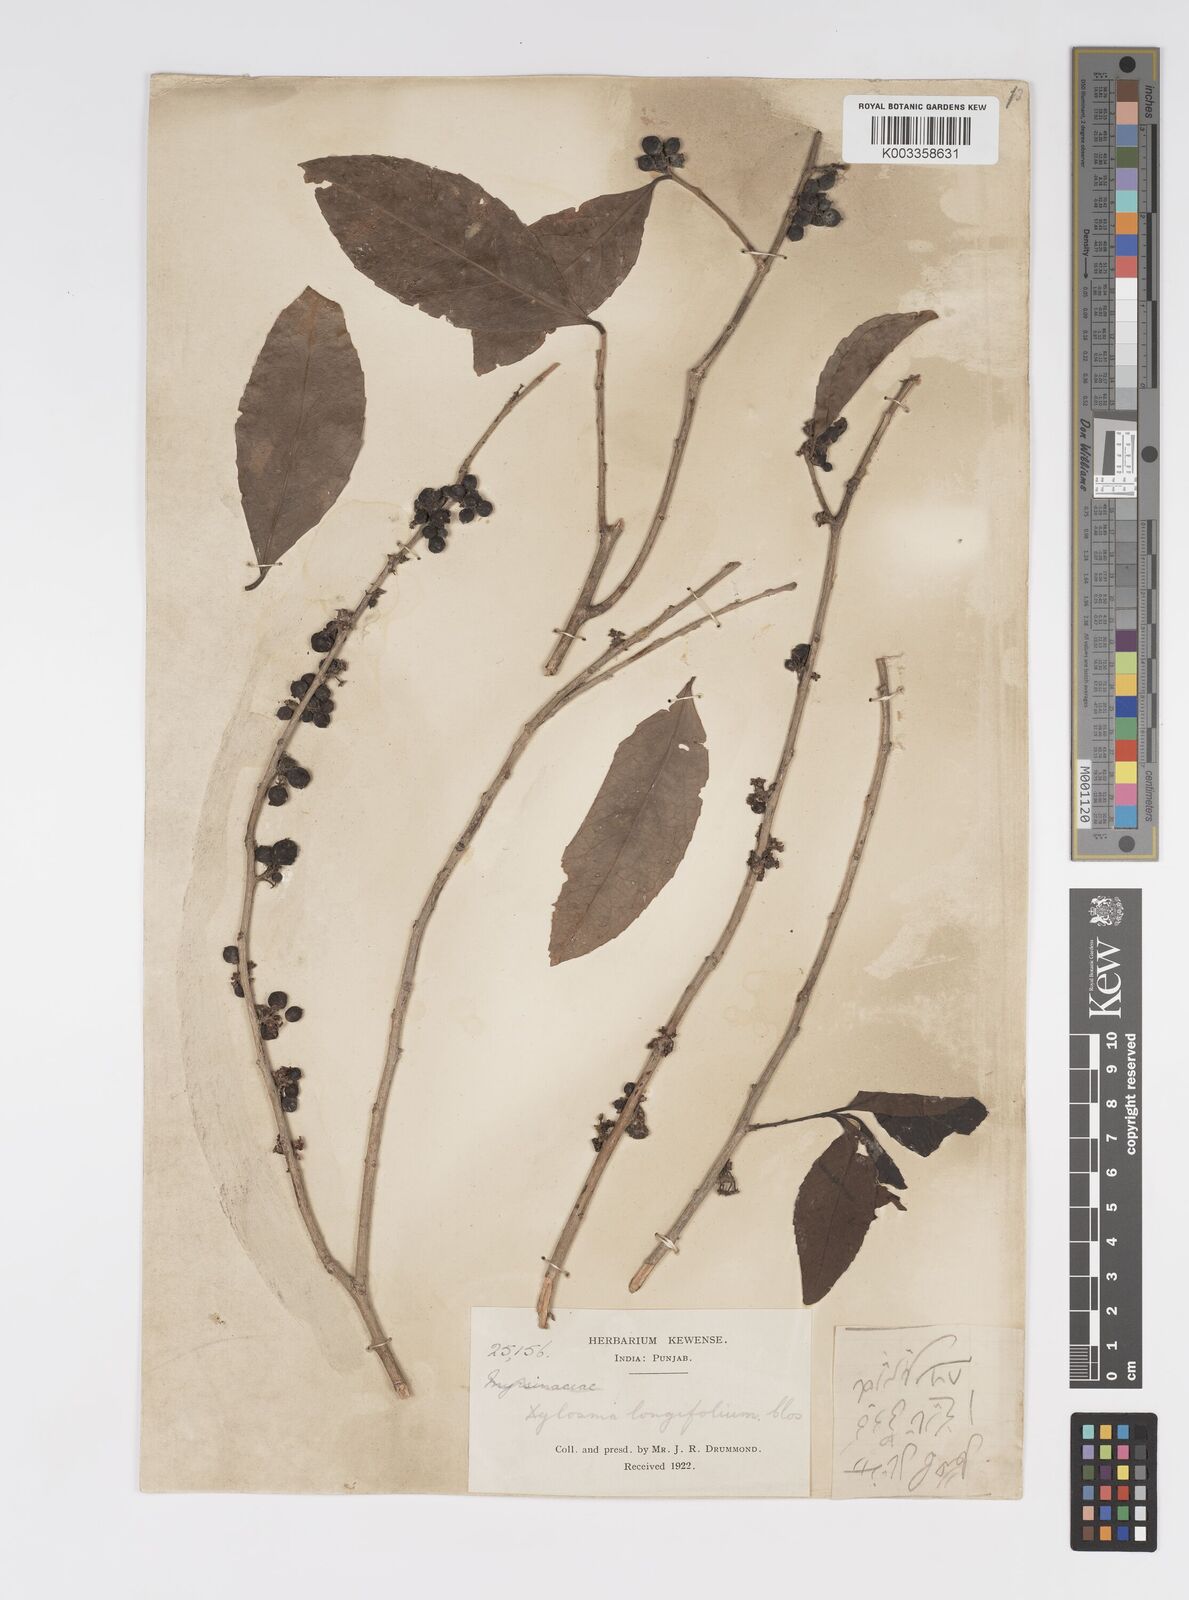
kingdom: Plantae
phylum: Tracheophyta
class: Magnoliopsida
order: Malpighiales
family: Salicaceae
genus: Xylosma
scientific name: Xylosma longifolia
